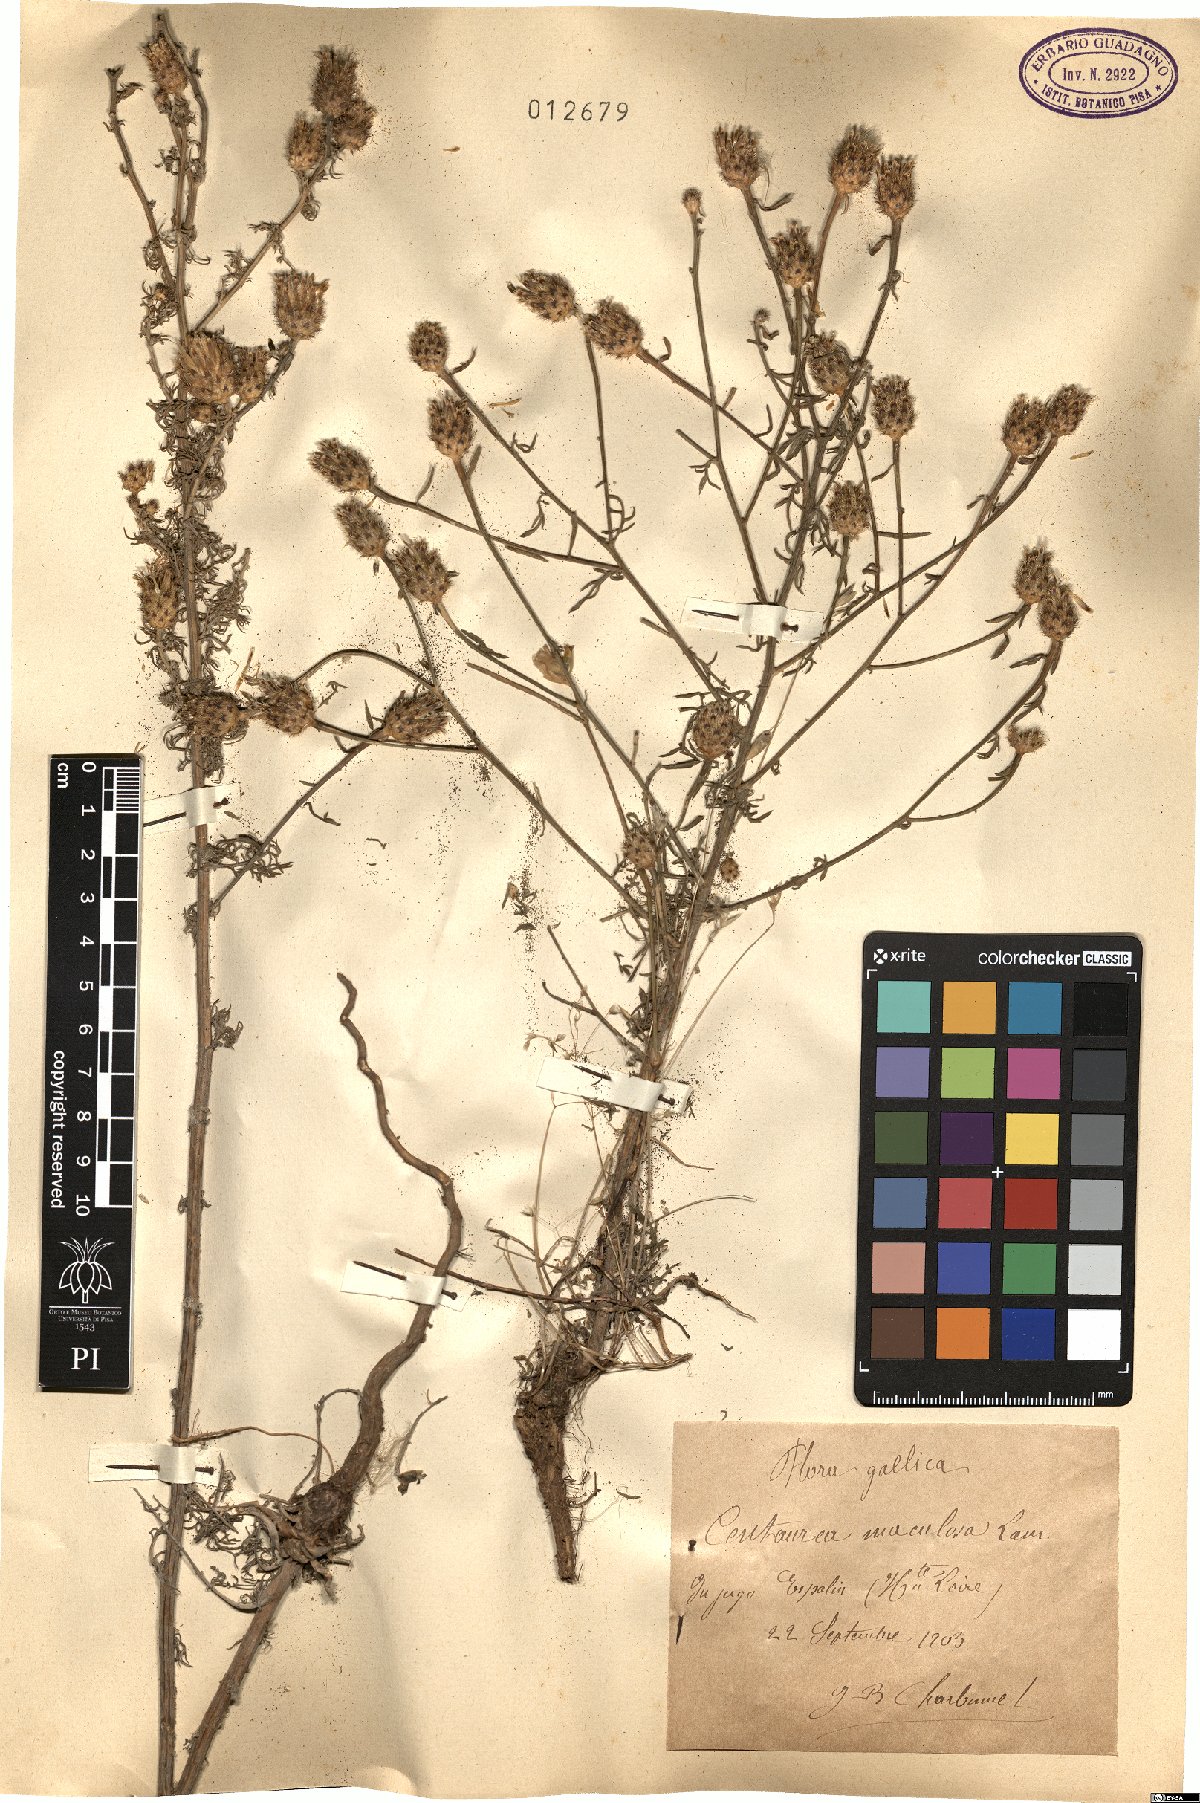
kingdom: Plantae
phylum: Tracheophyta
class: Magnoliopsida
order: Asterales
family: Asteraceae
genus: Centaurea
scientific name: Centaurea stoebe
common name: Spotted knapweed
